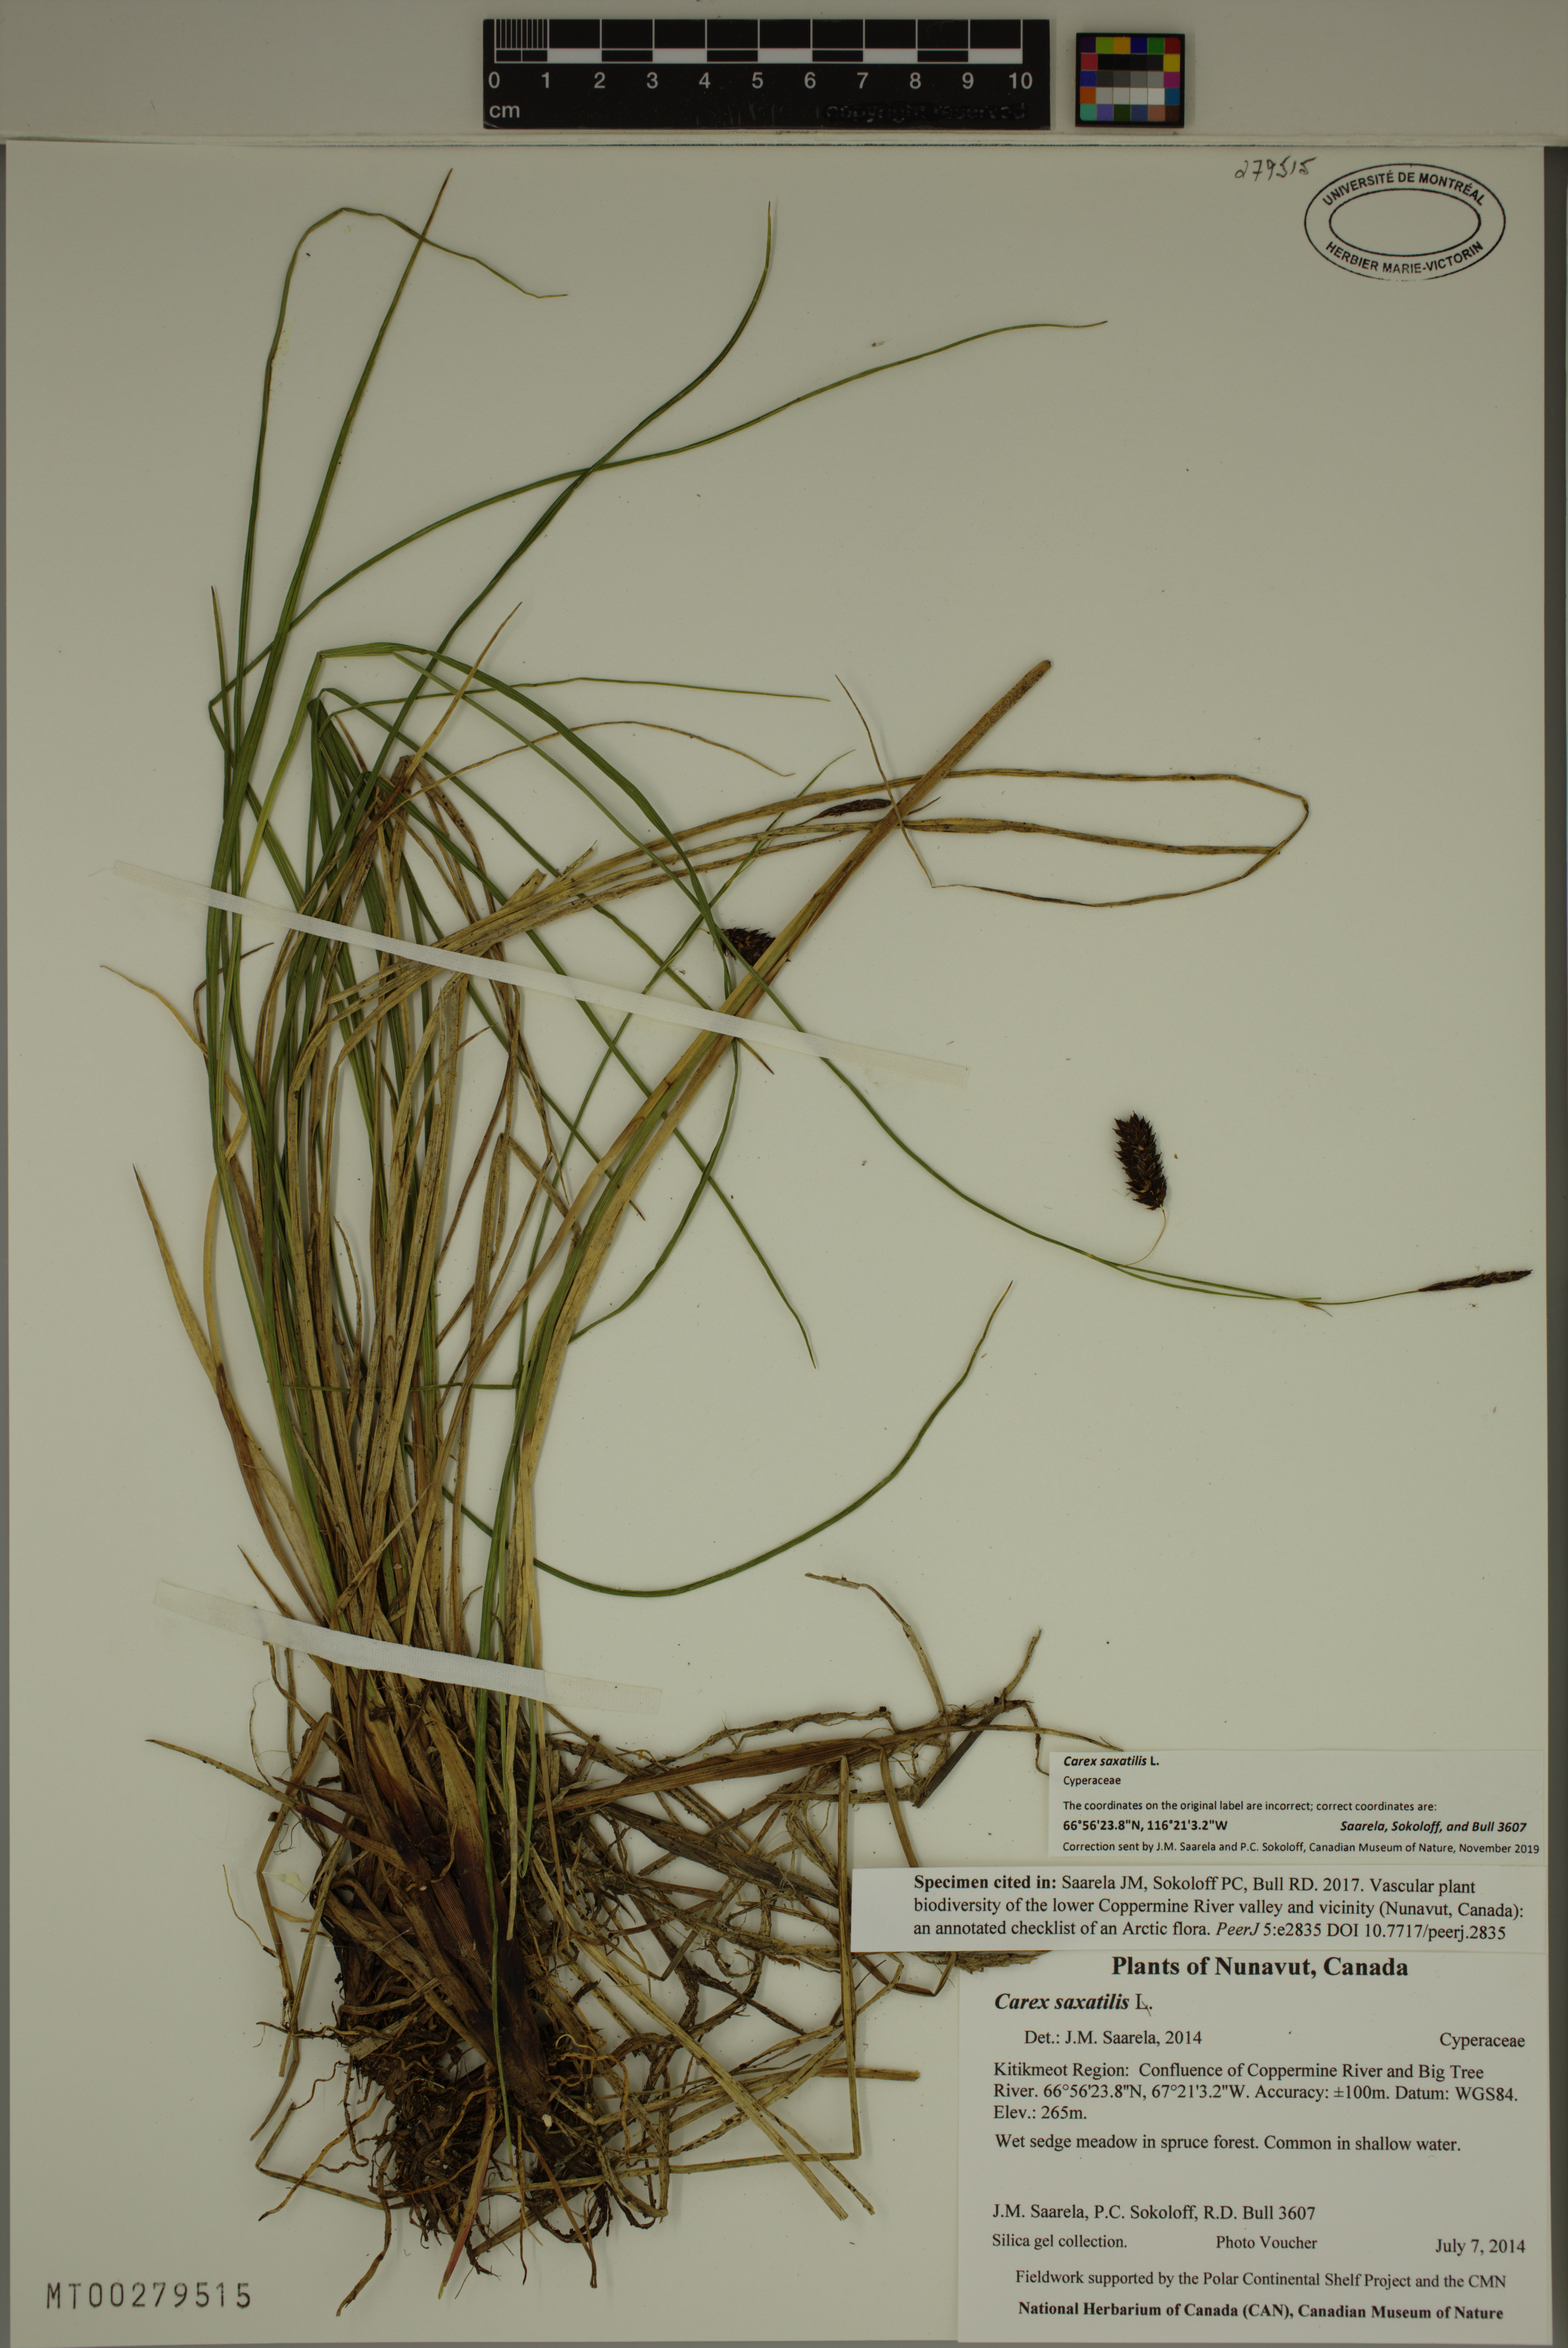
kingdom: Plantae
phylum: Tracheophyta
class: Liliopsida
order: Poales
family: Cyperaceae
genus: Carex
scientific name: Carex saxatilis
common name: Russet sedge
